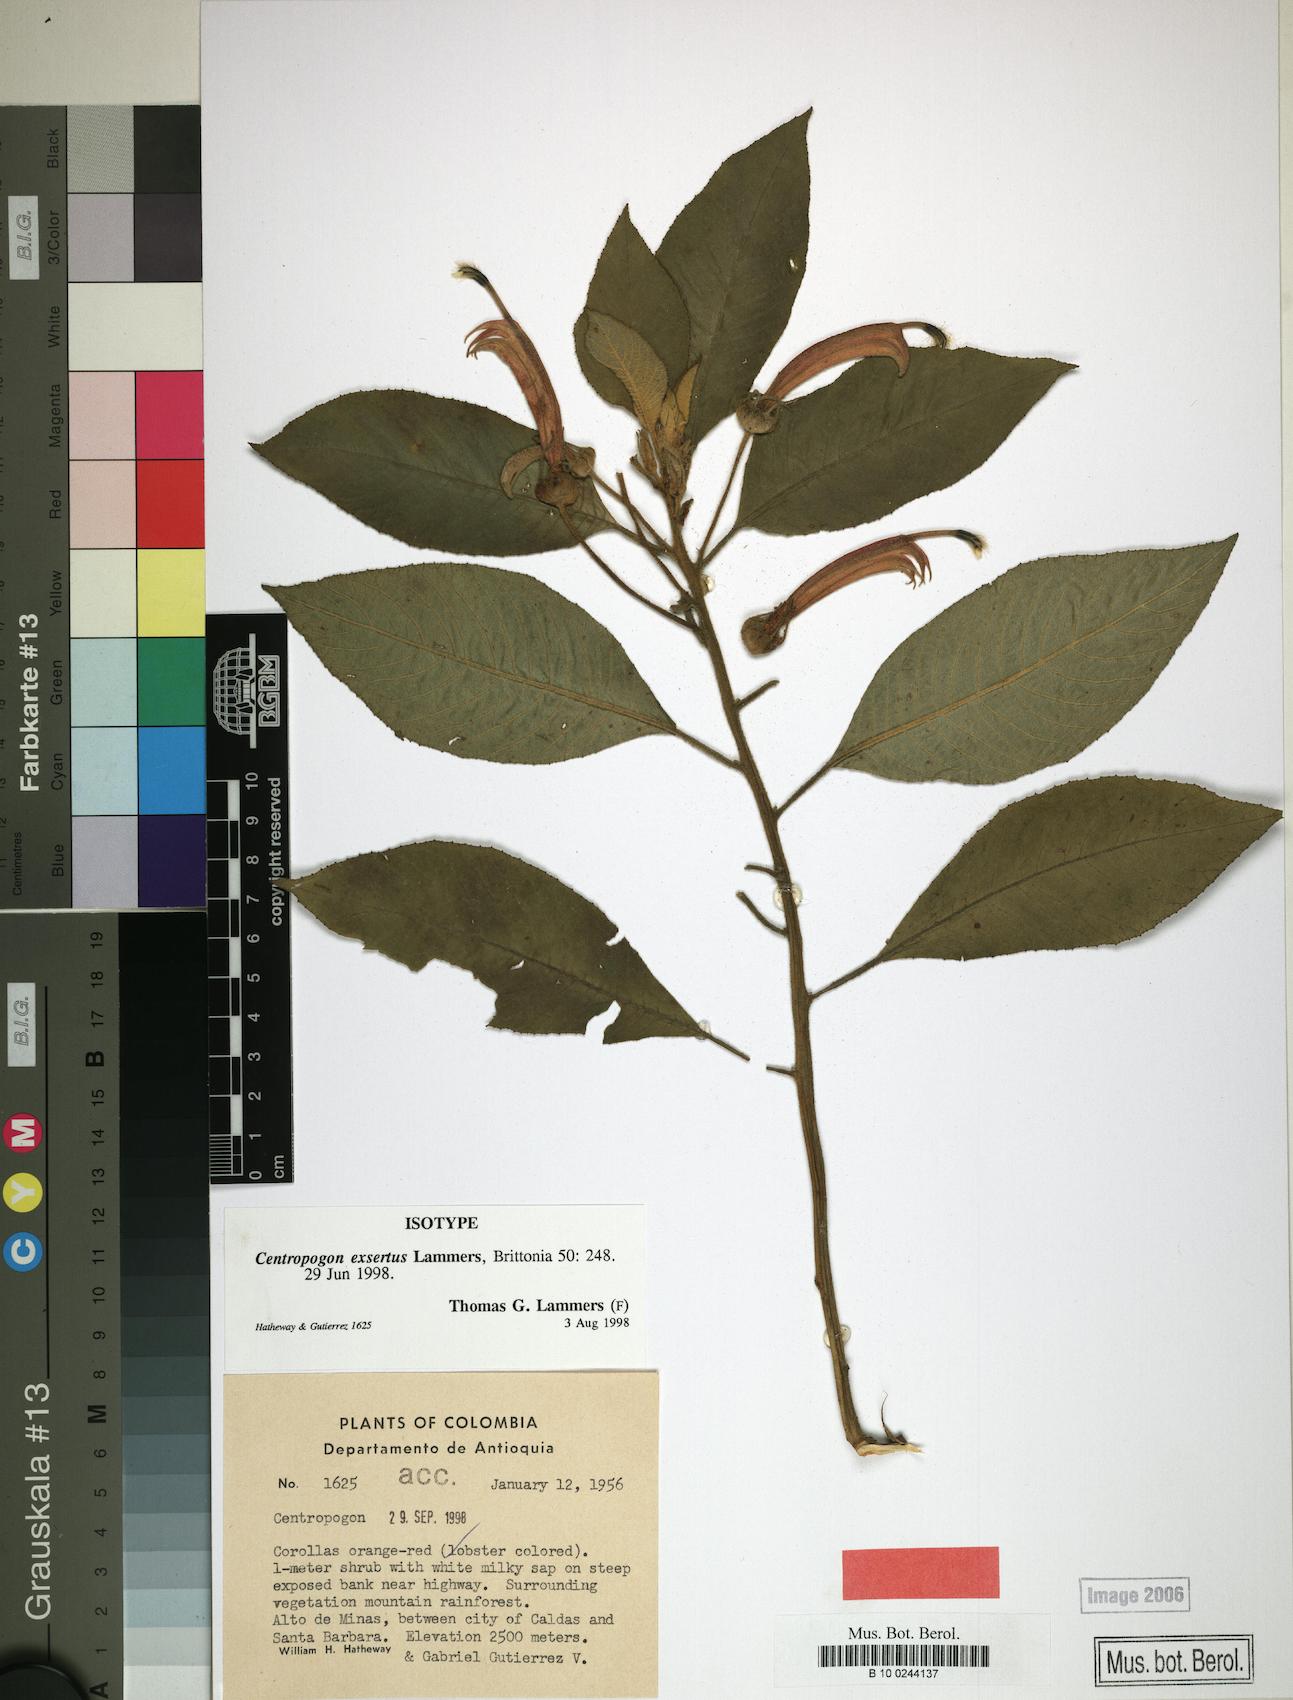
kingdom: Plantae
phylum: Tracheophyta
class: Magnoliopsida
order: Asterales
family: Campanulaceae
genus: Centropogon
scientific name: Centropogon granulosus
